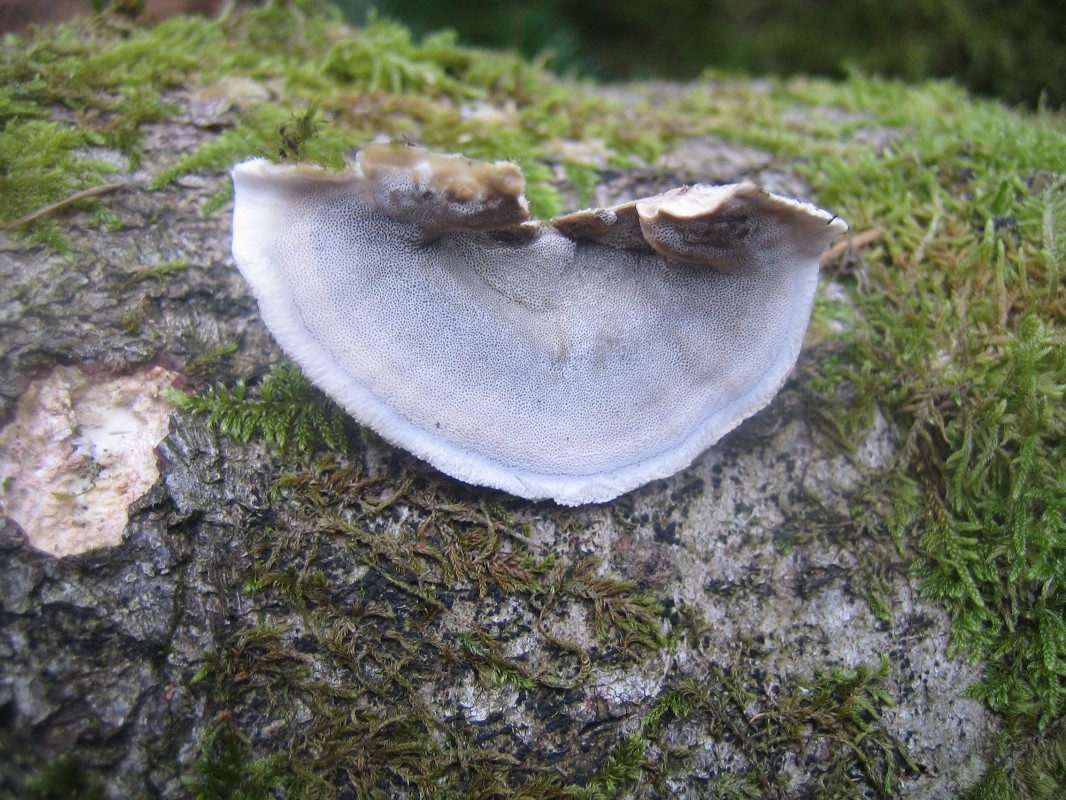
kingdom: Fungi
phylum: Basidiomycota
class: Agaricomycetes
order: Polyporales
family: Phanerochaetaceae
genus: Bjerkandera
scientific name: Bjerkandera adusta
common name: sveden sodporesvamp
